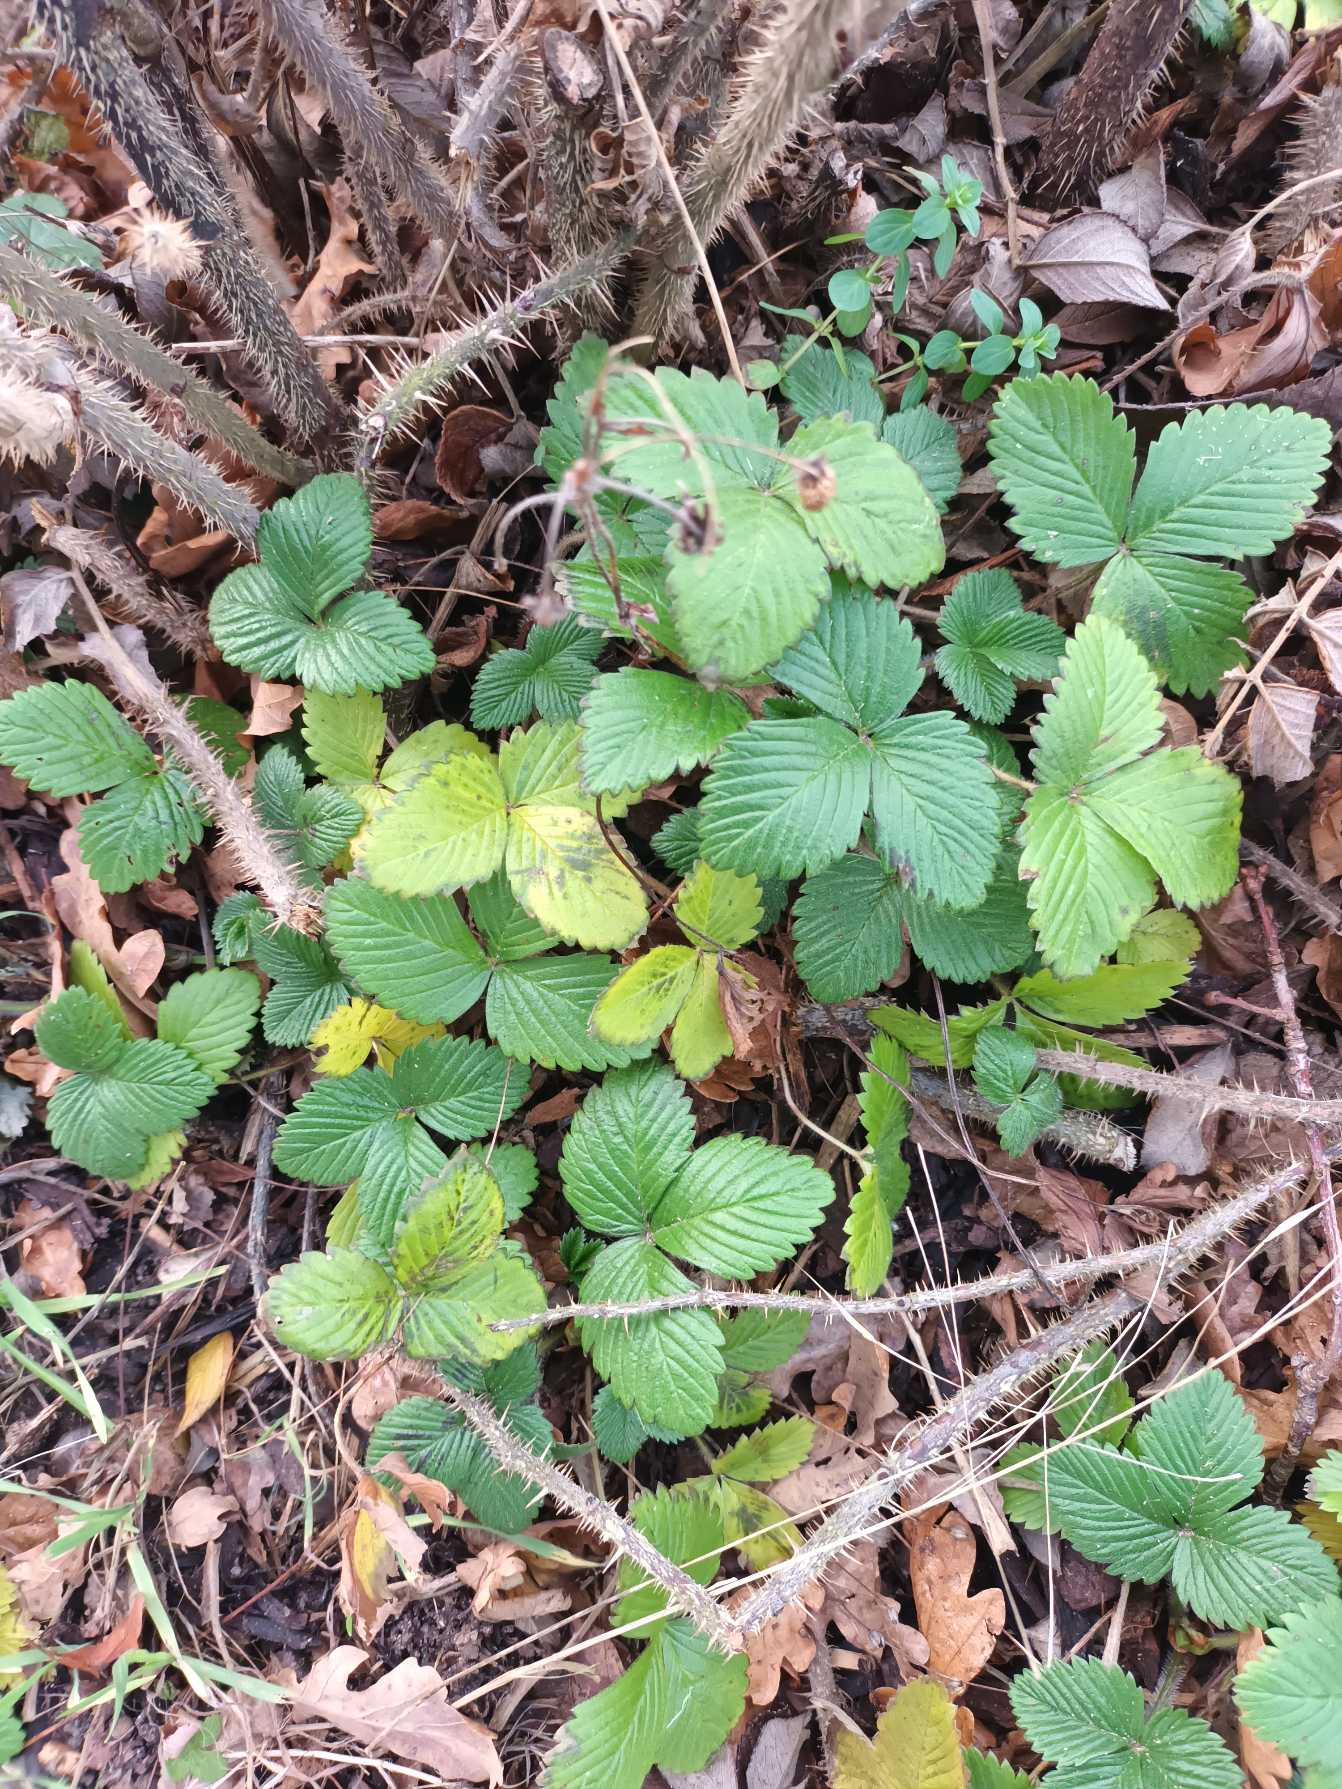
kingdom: Plantae
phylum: Tracheophyta
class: Magnoliopsida
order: Rosales
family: Rosaceae
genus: Fragaria
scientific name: Fragaria vesca
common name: Skov-jordbær
